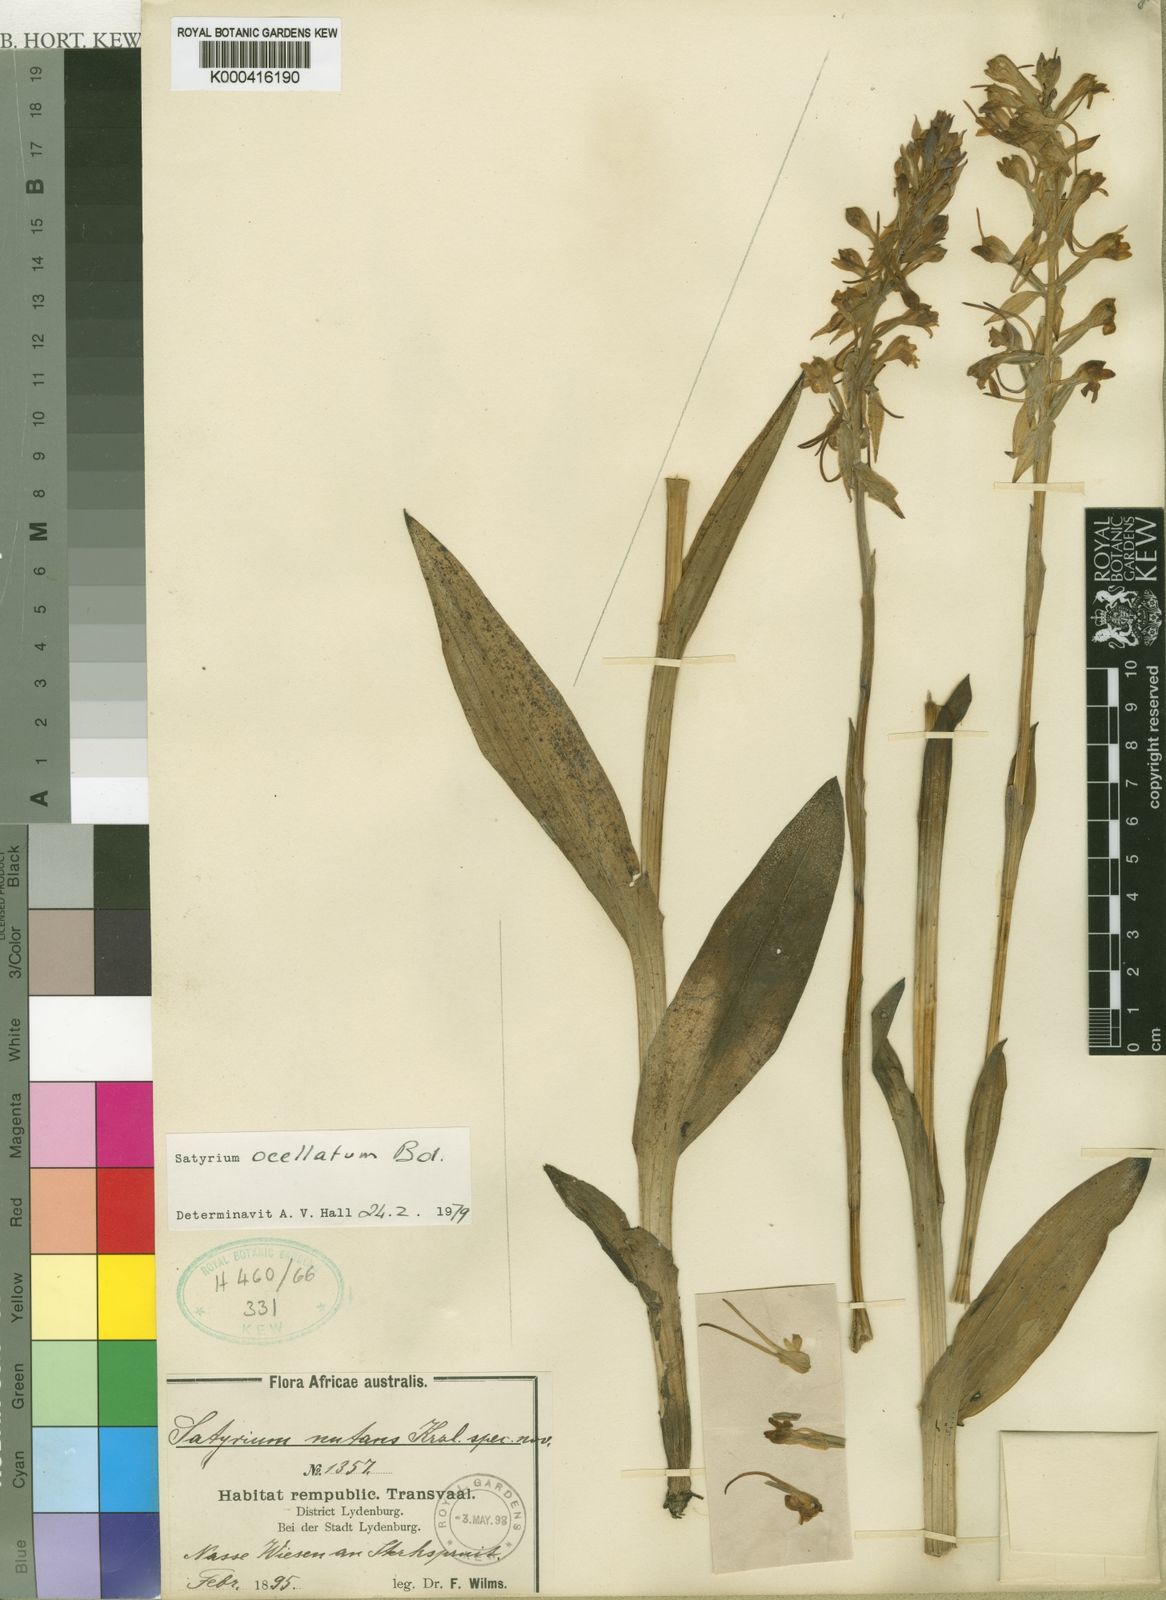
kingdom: Plantae
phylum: Tracheophyta
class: Liliopsida
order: Asparagales
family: Orchidaceae
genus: Satyrium
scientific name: Satyrium hallackii
